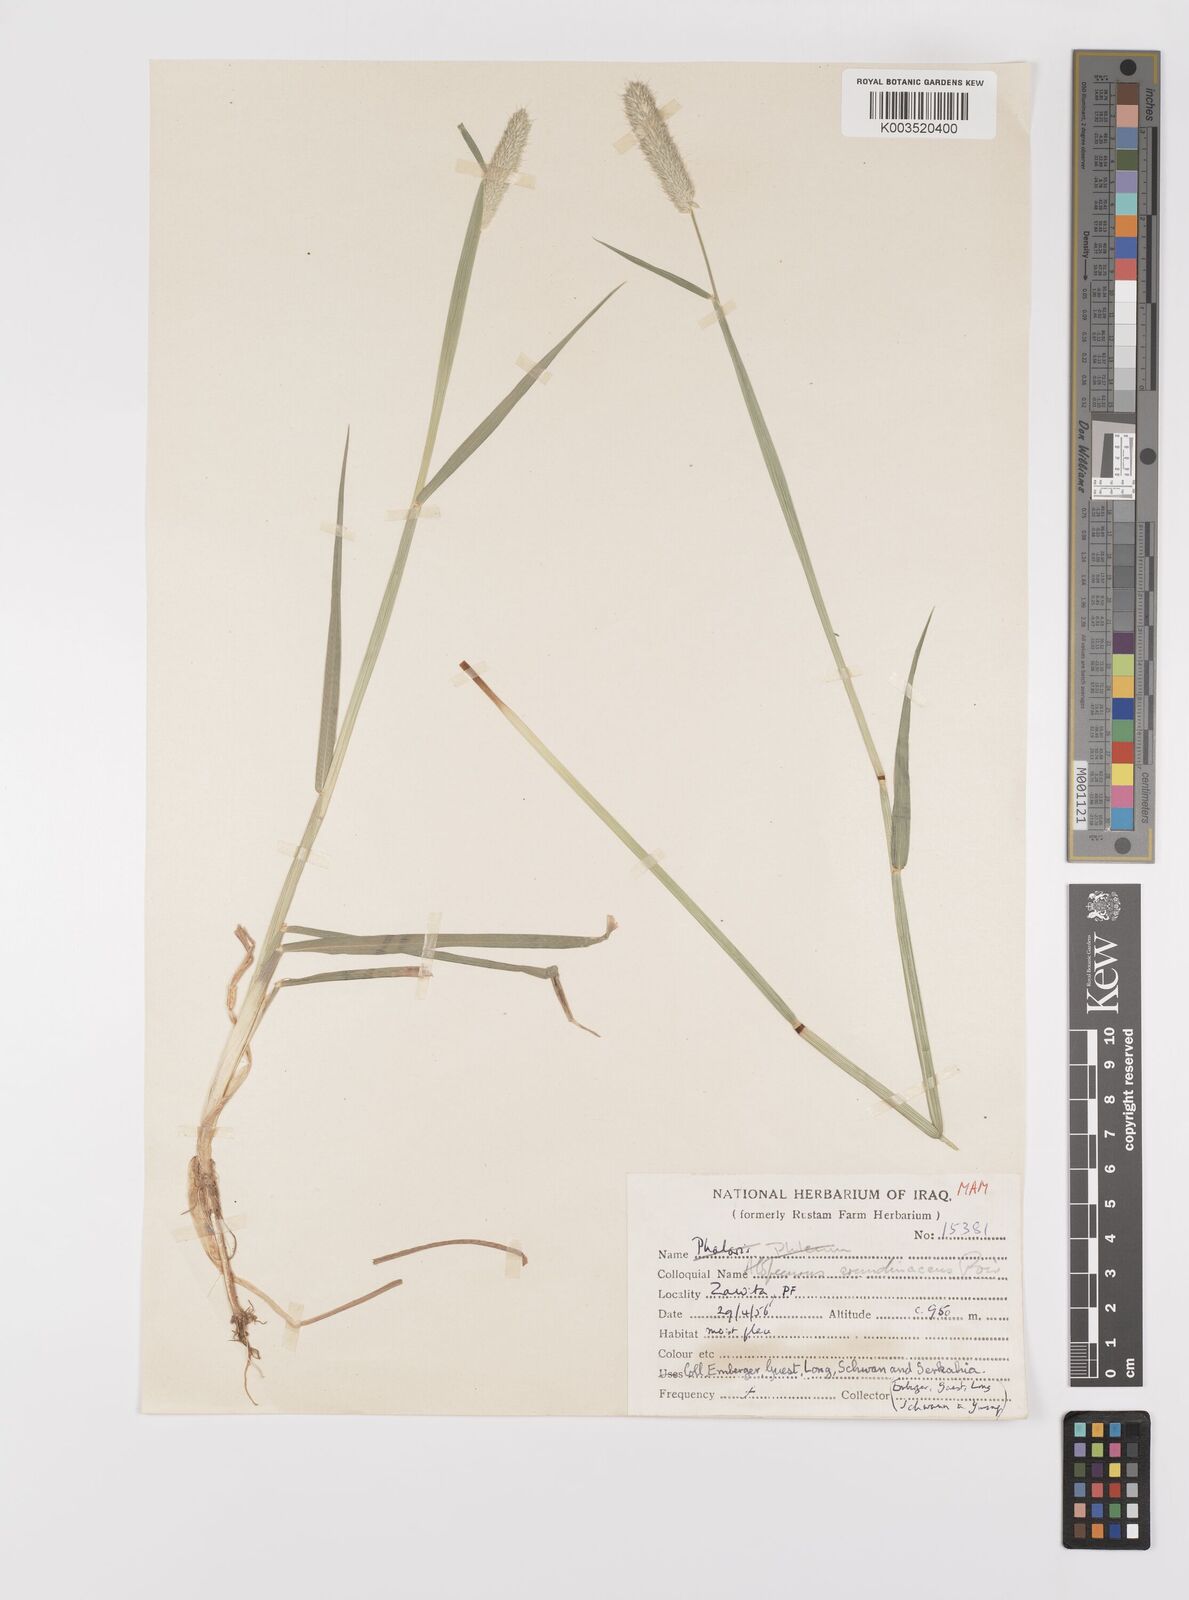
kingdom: Plantae
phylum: Tracheophyta
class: Liliopsida
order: Poales
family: Poaceae
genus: Alopecurus
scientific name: Alopecurus arundinaceus
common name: Creeping meadow foxtail
